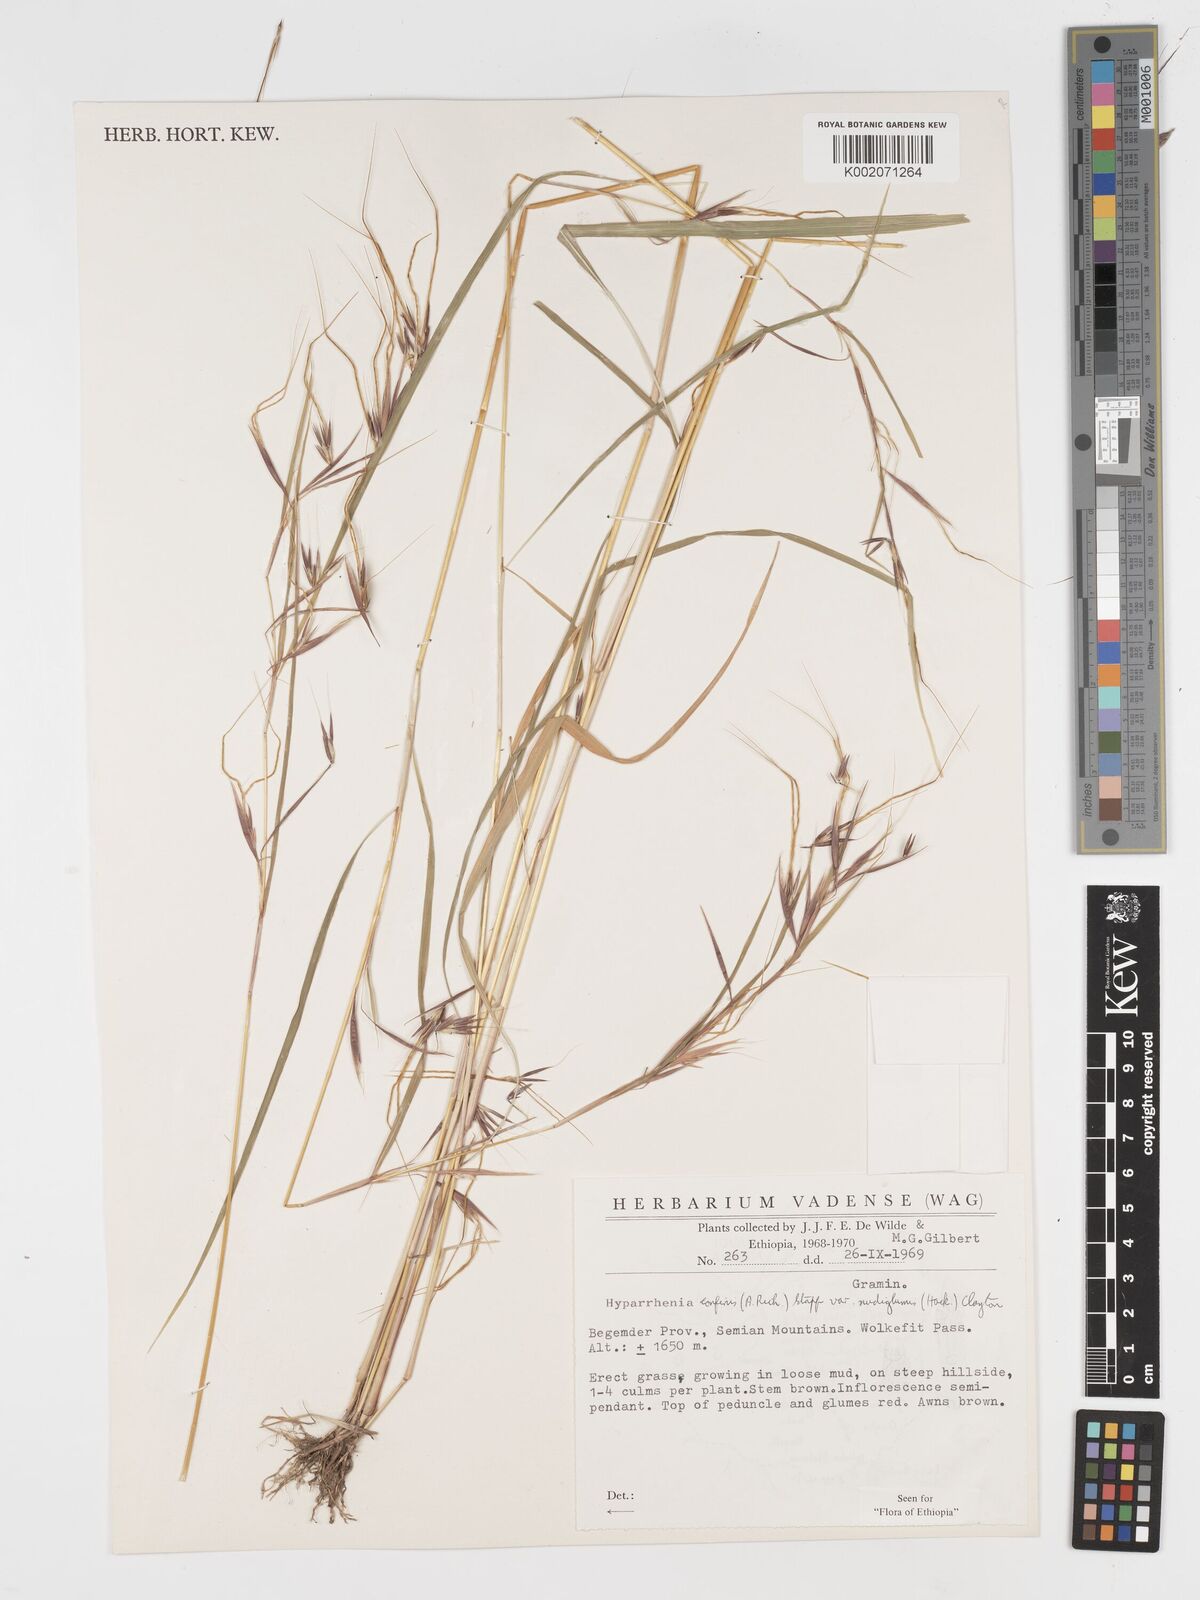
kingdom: Plantae
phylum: Tracheophyta
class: Liliopsida
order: Poales
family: Poaceae
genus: Hyparrhenia
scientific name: Hyparrhenia confinis
